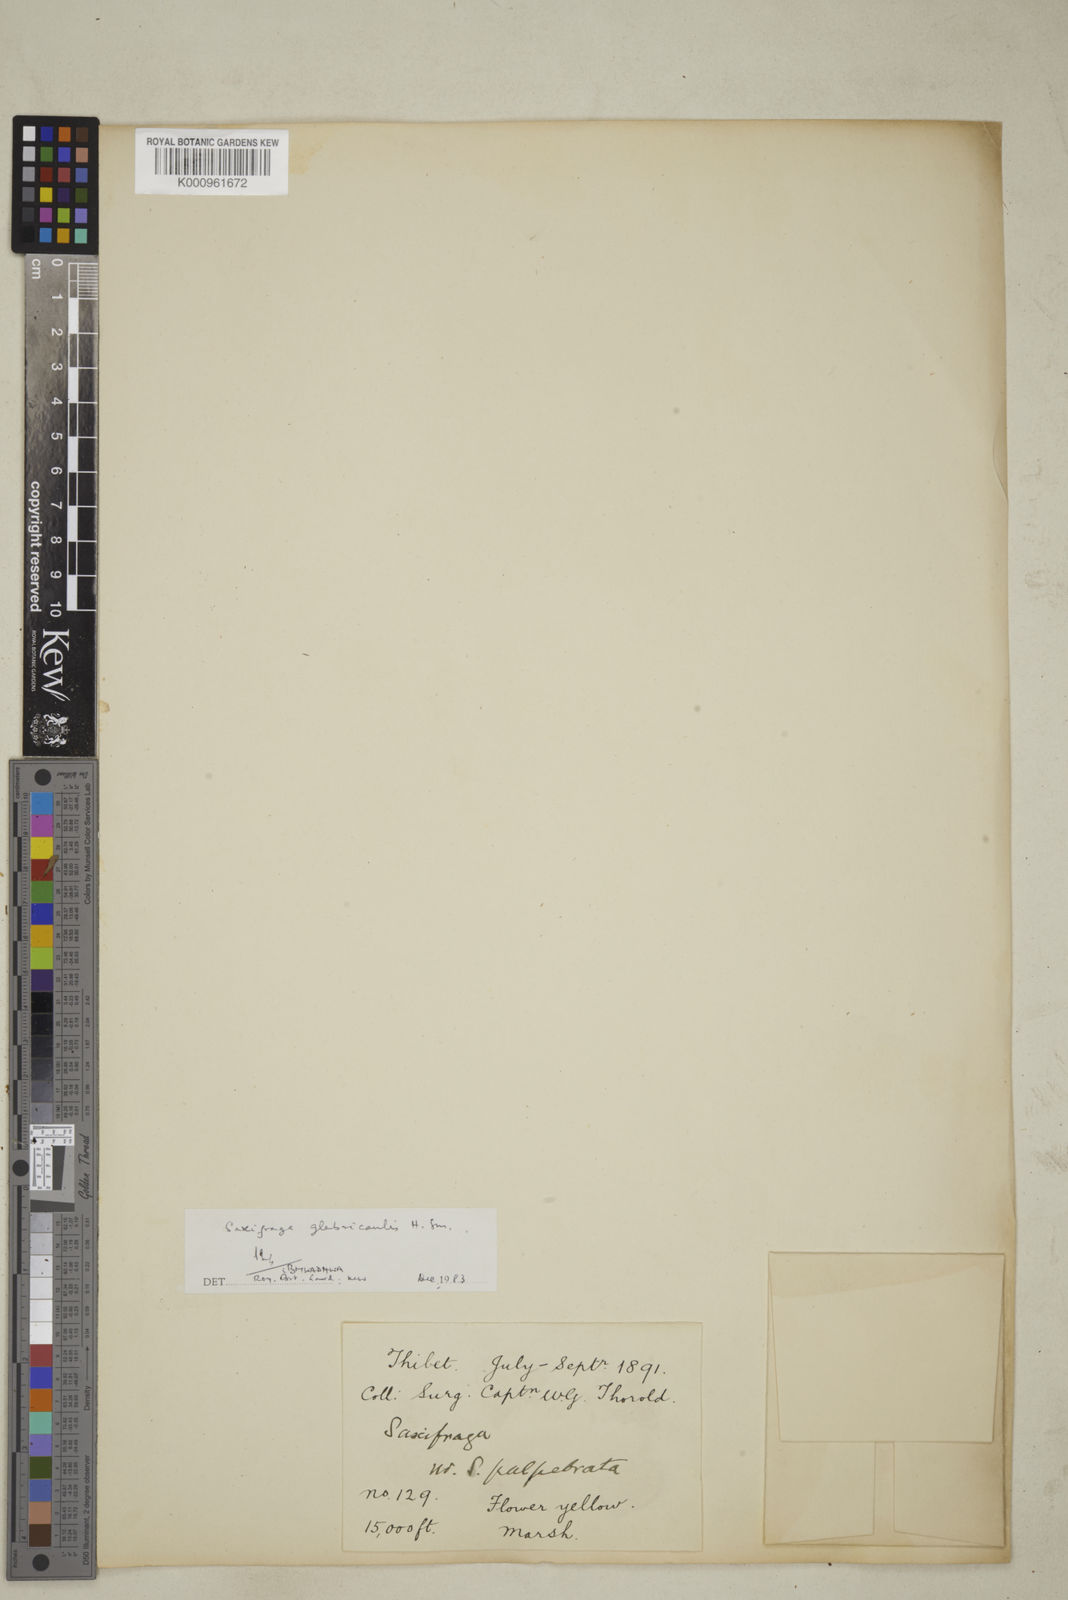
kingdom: Plantae
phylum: Tracheophyta
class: Magnoliopsida
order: Saxifragales
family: Saxifragaceae
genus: Saxifraga
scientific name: Saxifraga glabricaulis
